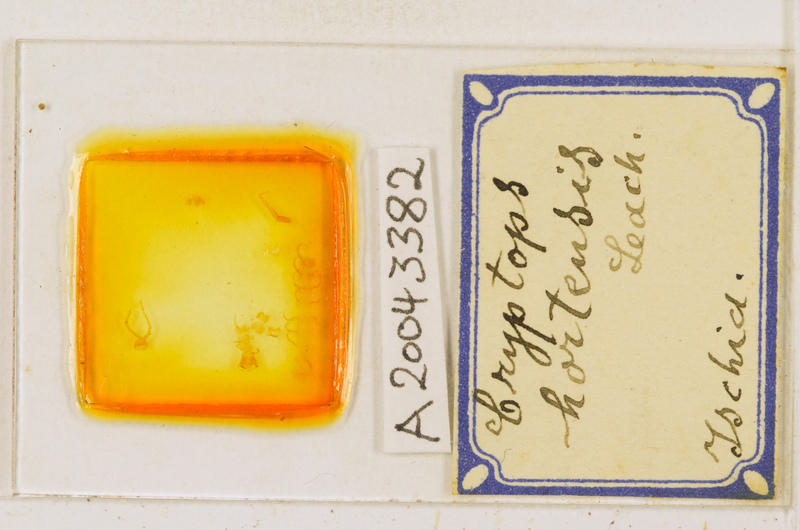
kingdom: Animalia
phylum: Arthropoda
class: Chilopoda
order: Scolopendromorpha
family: Cryptopidae
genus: Cryptops
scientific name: Cryptops hortensis
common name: Centipede
